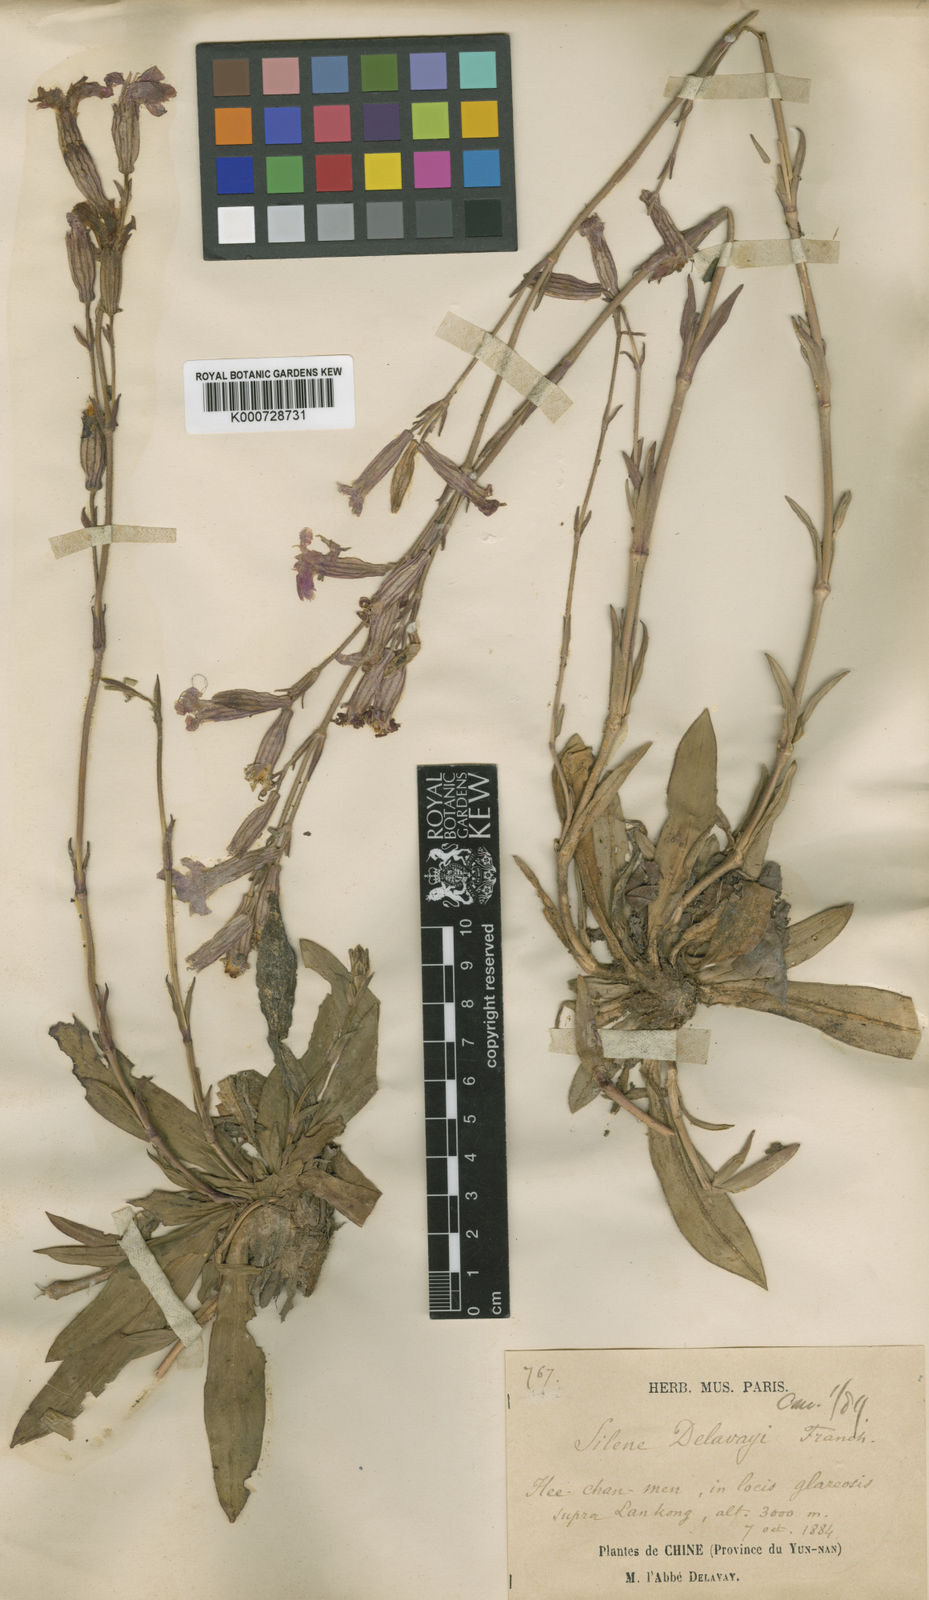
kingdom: Plantae
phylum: Tracheophyta
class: Magnoliopsida
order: Caryophyllales
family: Caryophyllaceae
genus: Silene
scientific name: Silene delavayi
